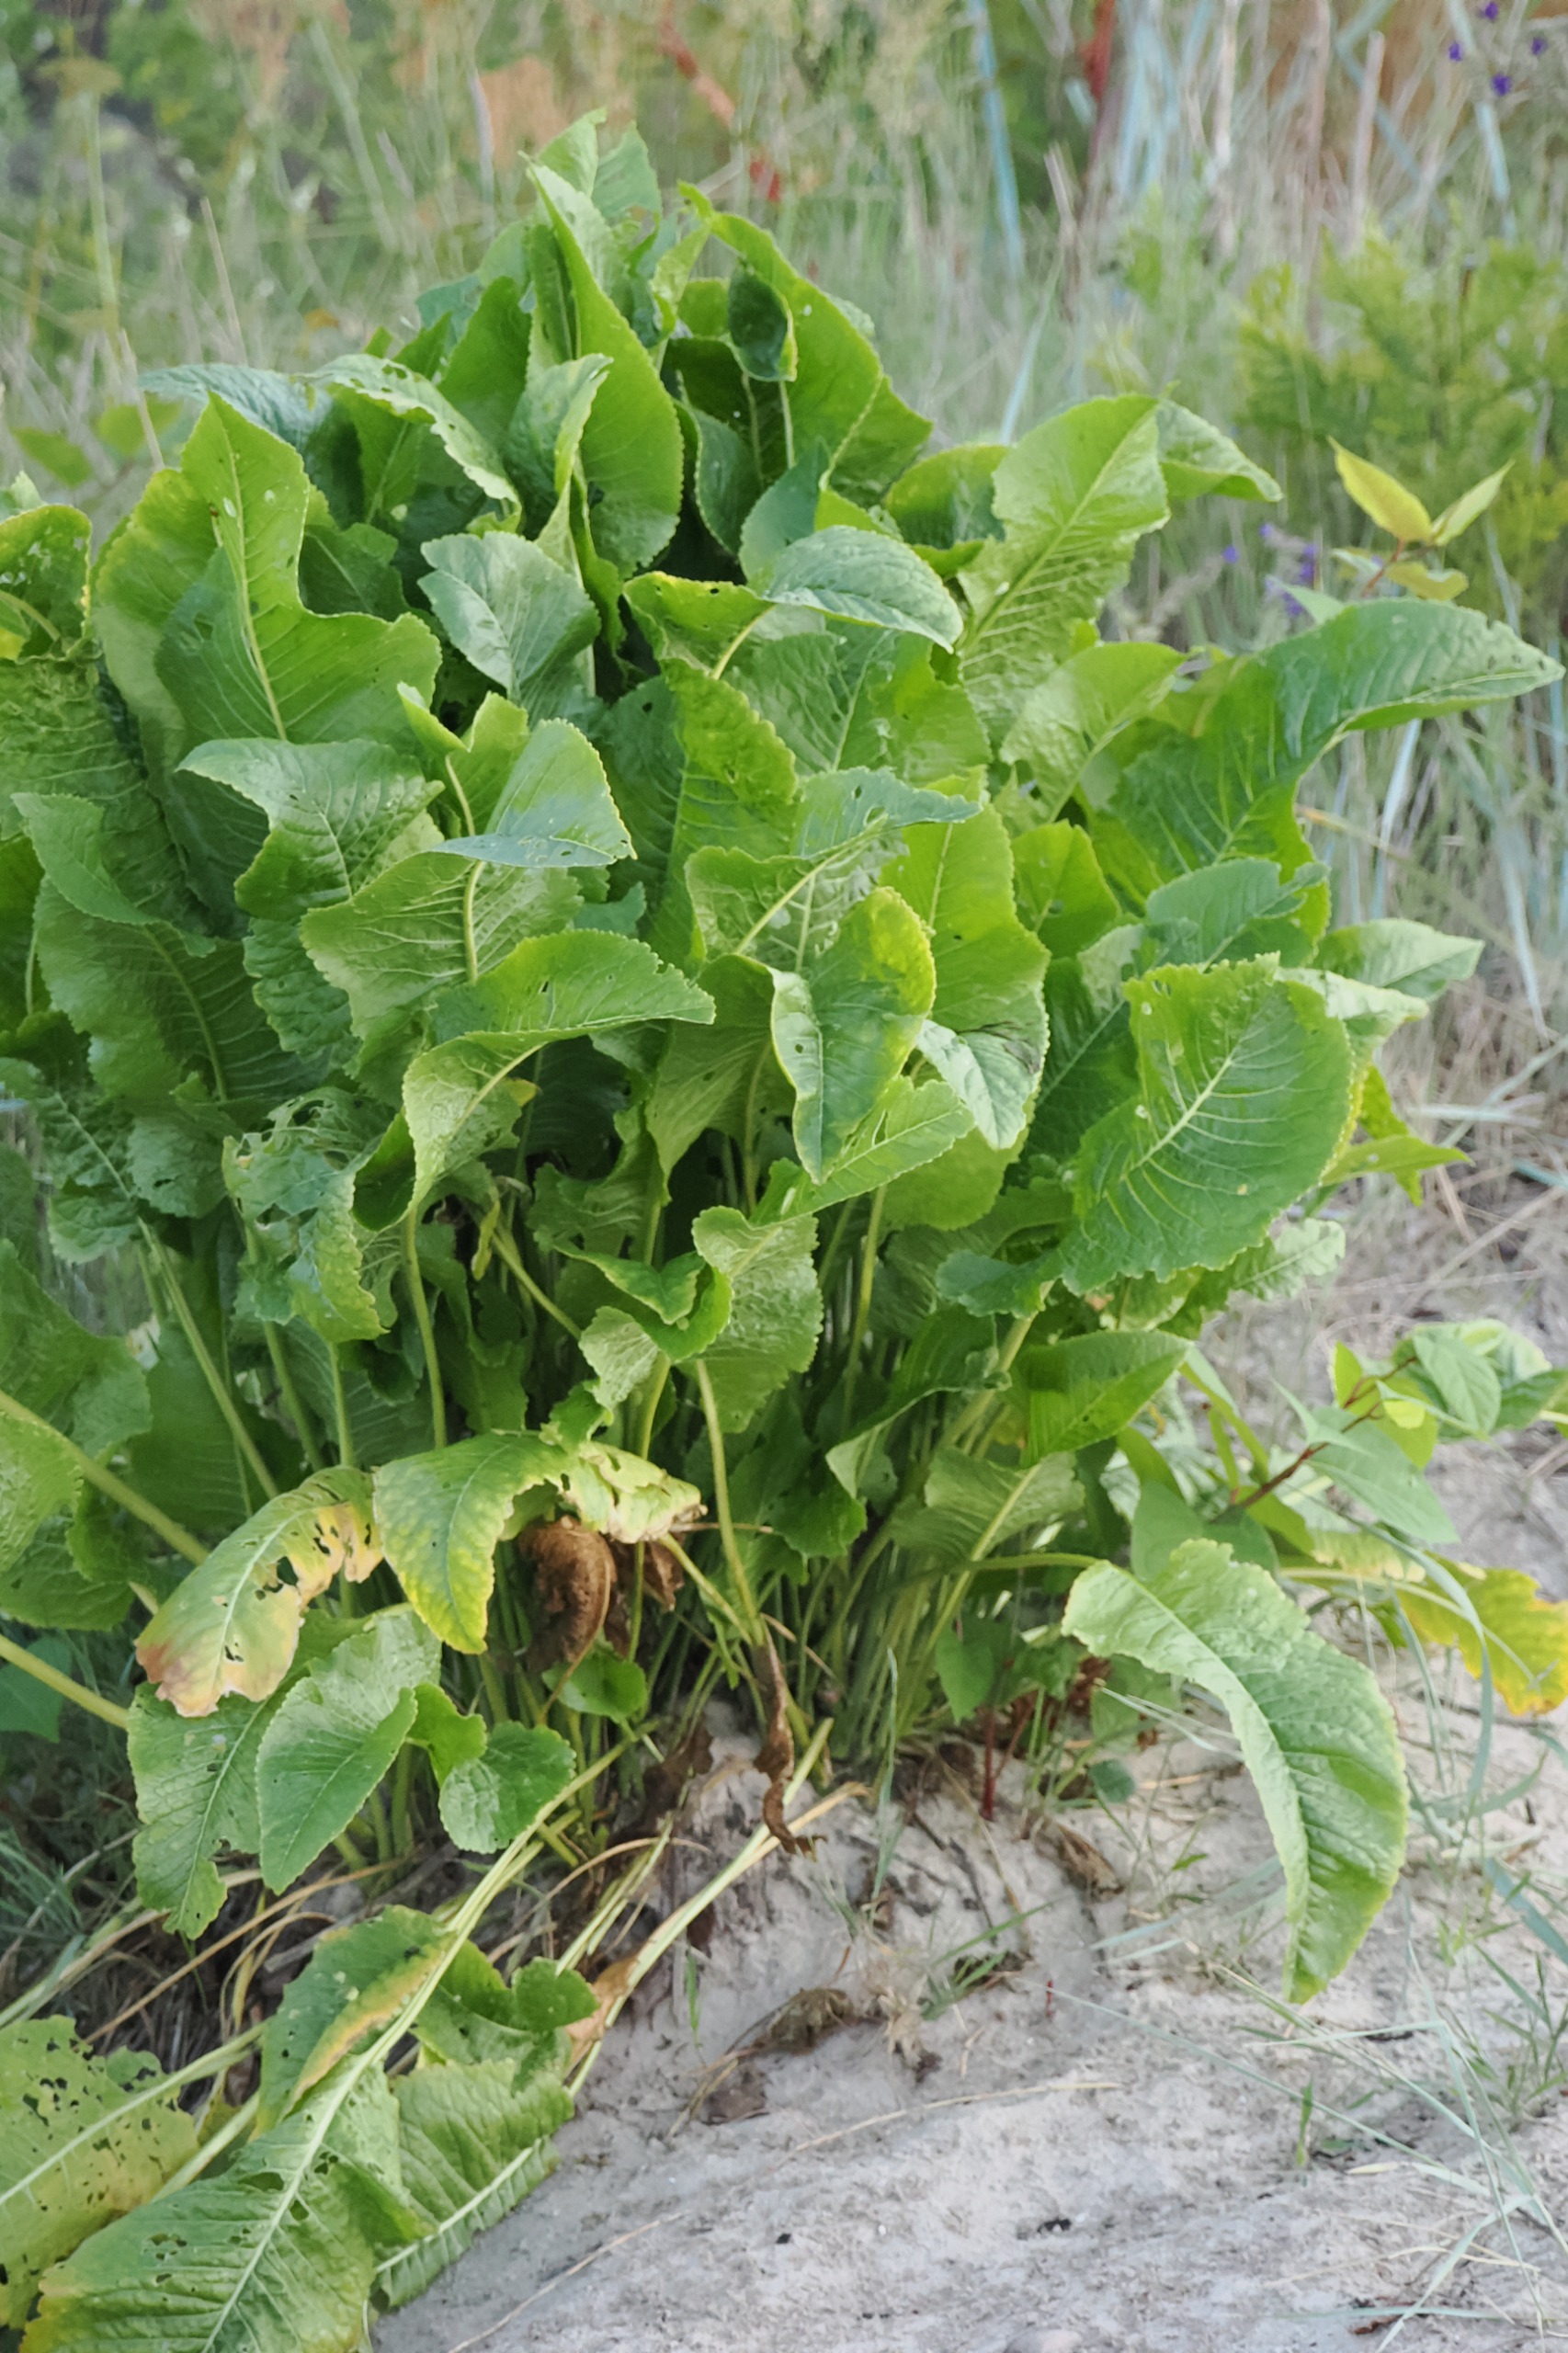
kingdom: Plantae
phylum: Tracheophyta
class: Magnoliopsida
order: Brassicales
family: Brassicaceae
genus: Armoracia
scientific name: Armoracia rusticana
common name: Peberrod
